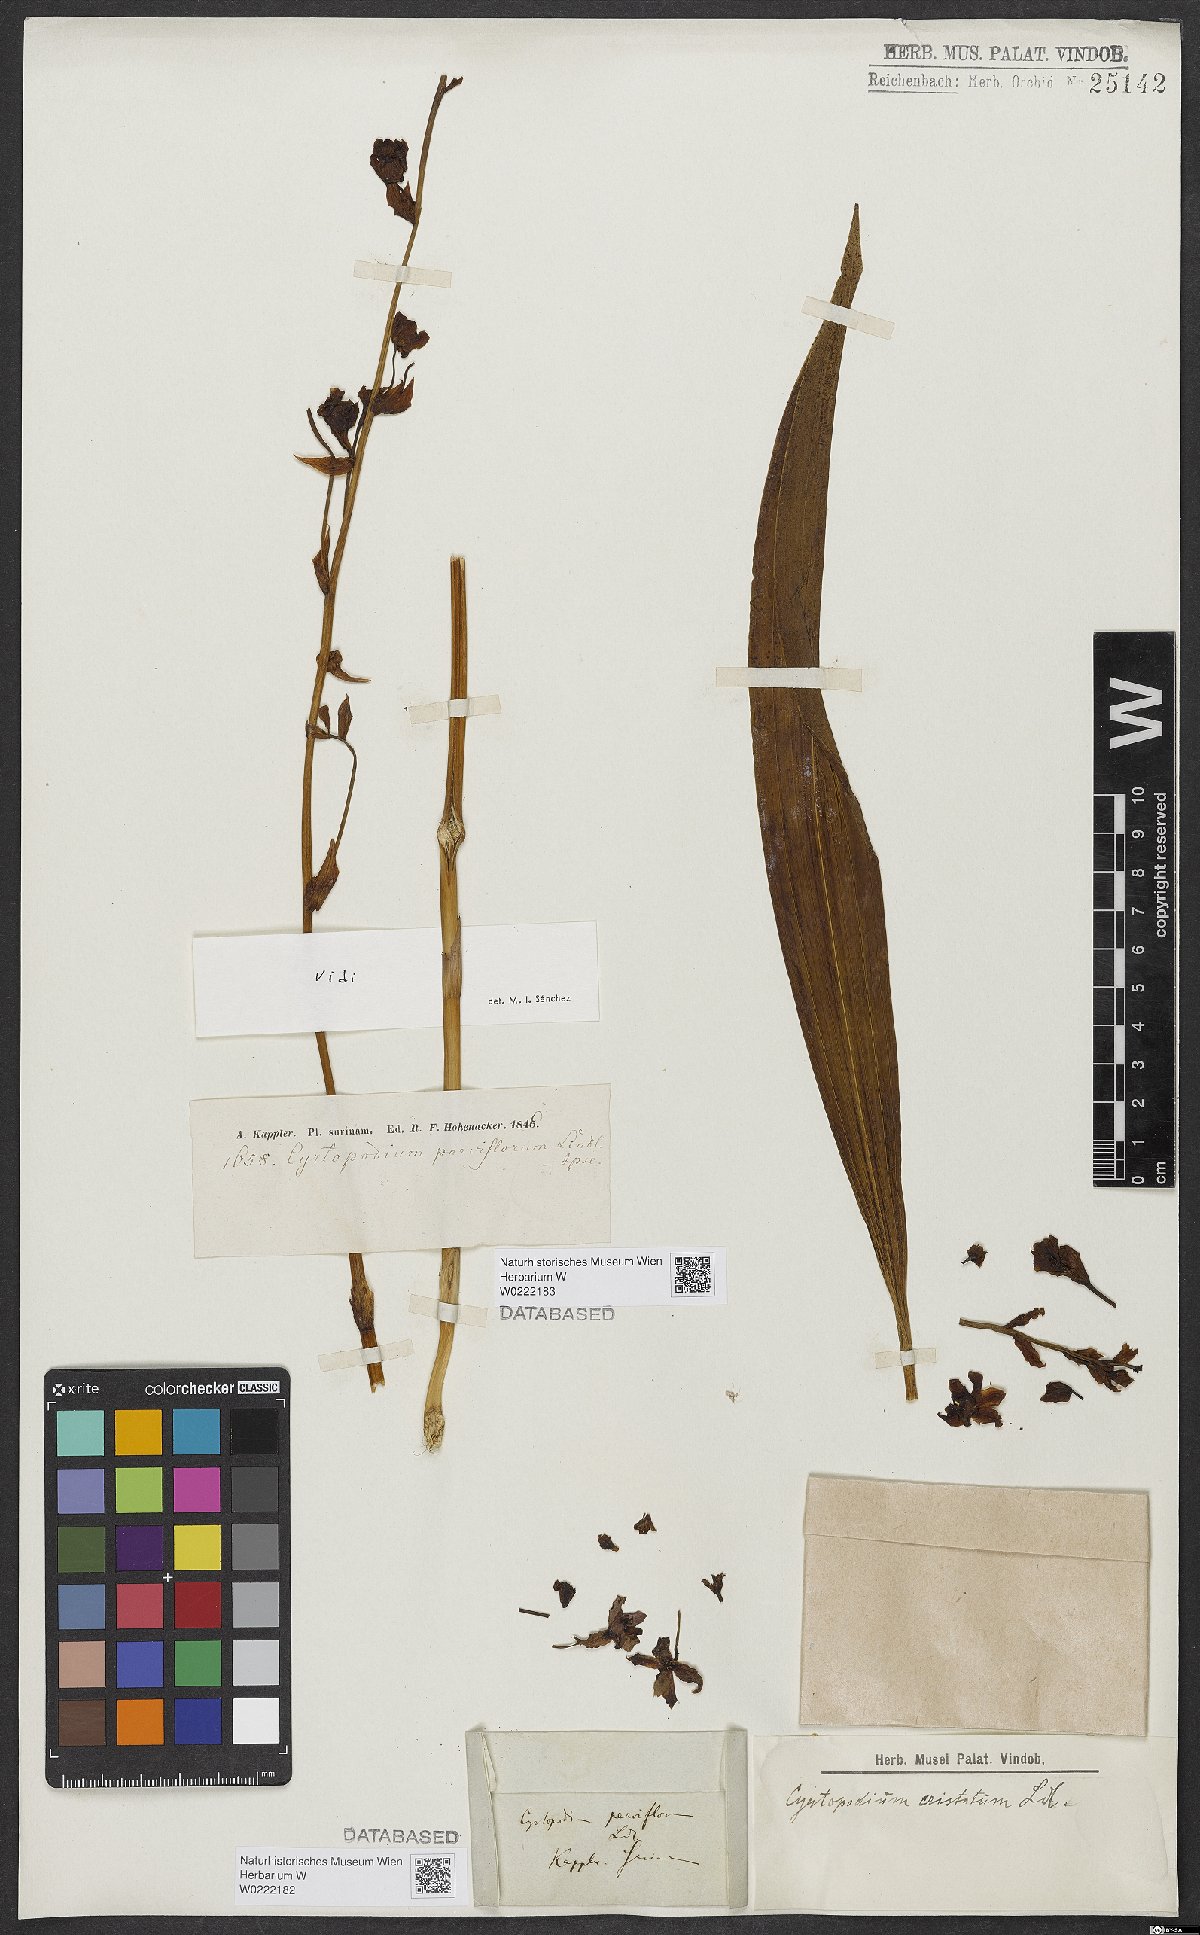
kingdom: Plantae
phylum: Tracheophyta
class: Liliopsida
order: Asparagales
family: Orchidaceae
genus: Cyrtopodium
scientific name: Cyrtopodium parviflorum
